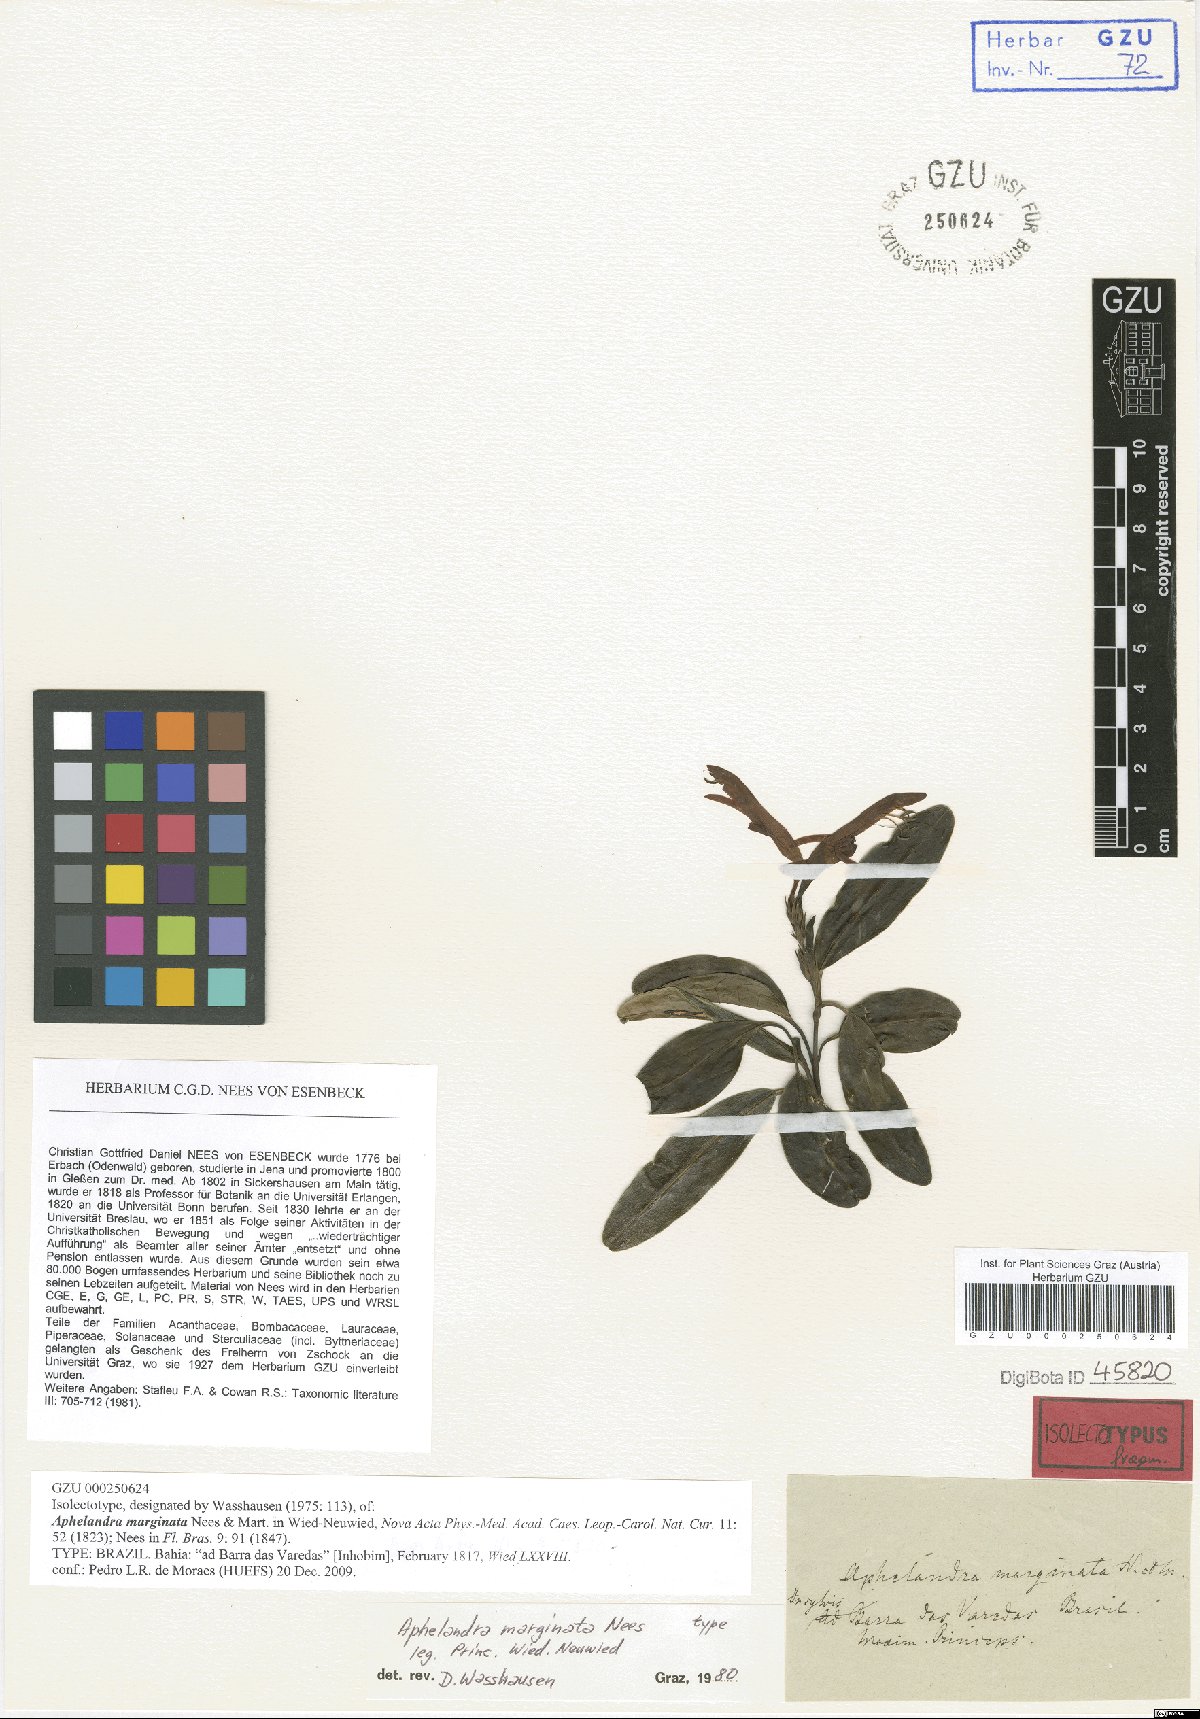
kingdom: Plantae
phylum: Tracheophyta
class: Magnoliopsida
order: Lamiales
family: Acanthaceae
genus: Aphelandra
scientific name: Aphelandra marginata
